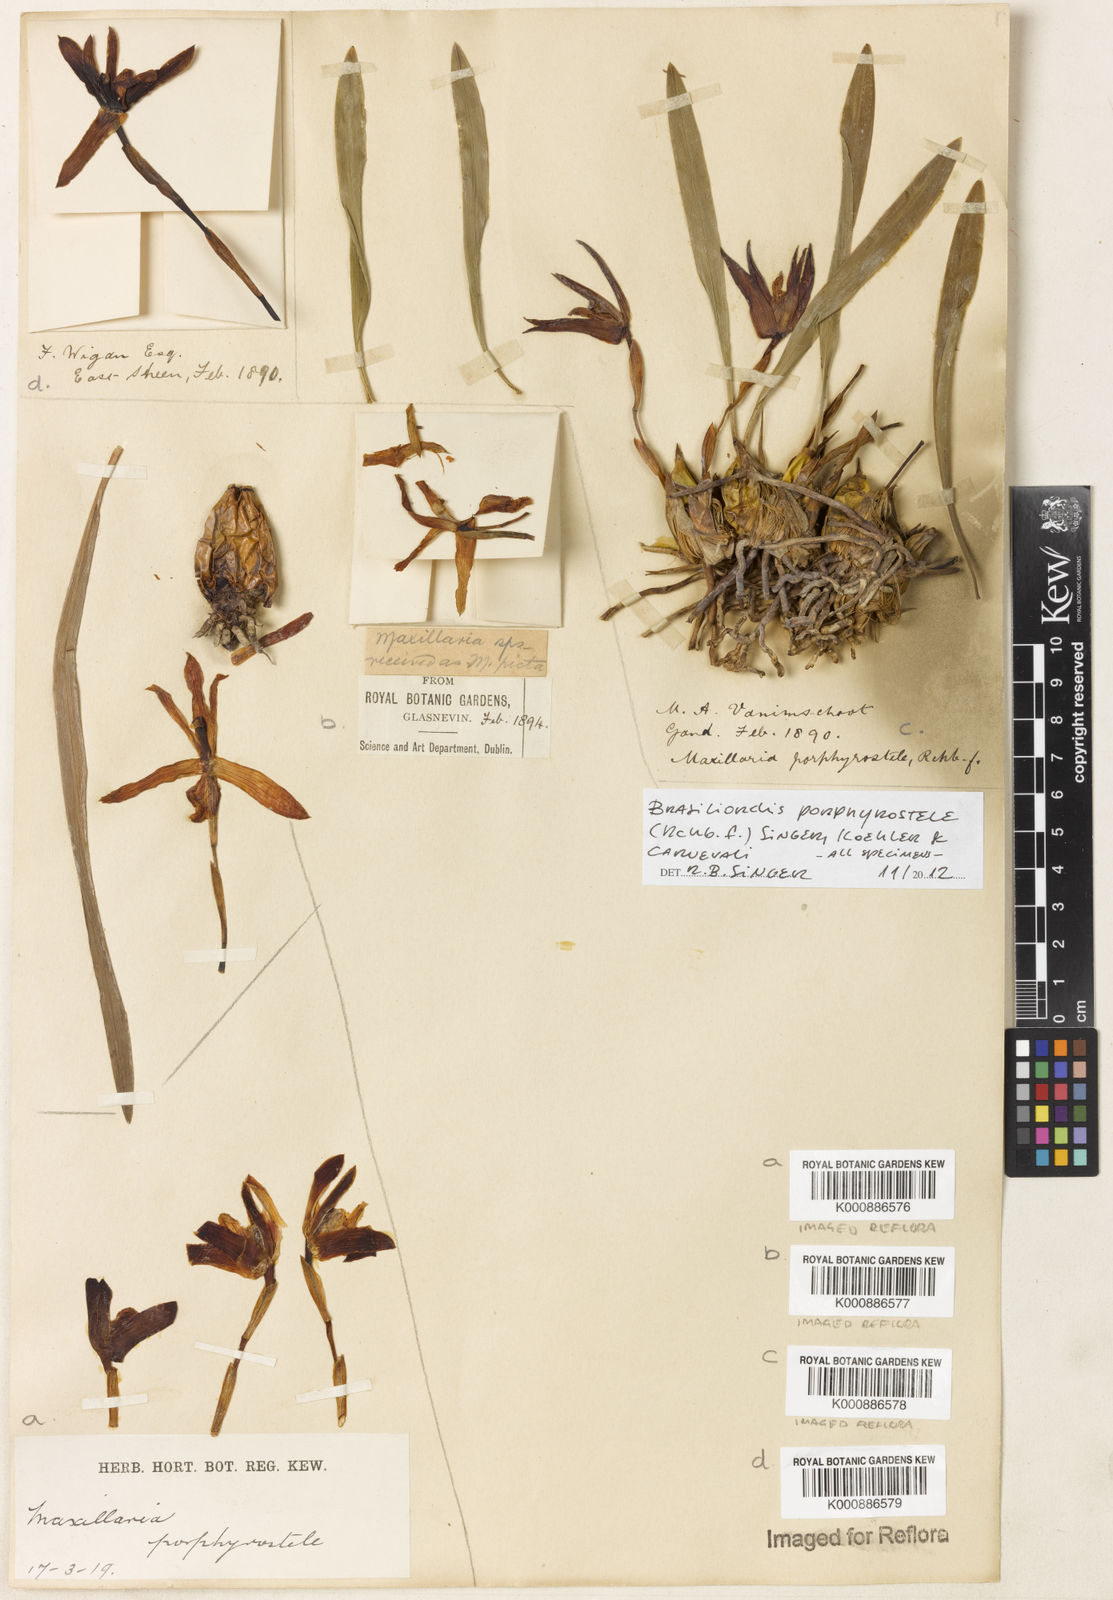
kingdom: Plantae
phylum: Tracheophyta
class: Liliopsida
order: Asparagales
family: Orchidaceae
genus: Maxillaria
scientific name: Maxillaria porphyrostele
